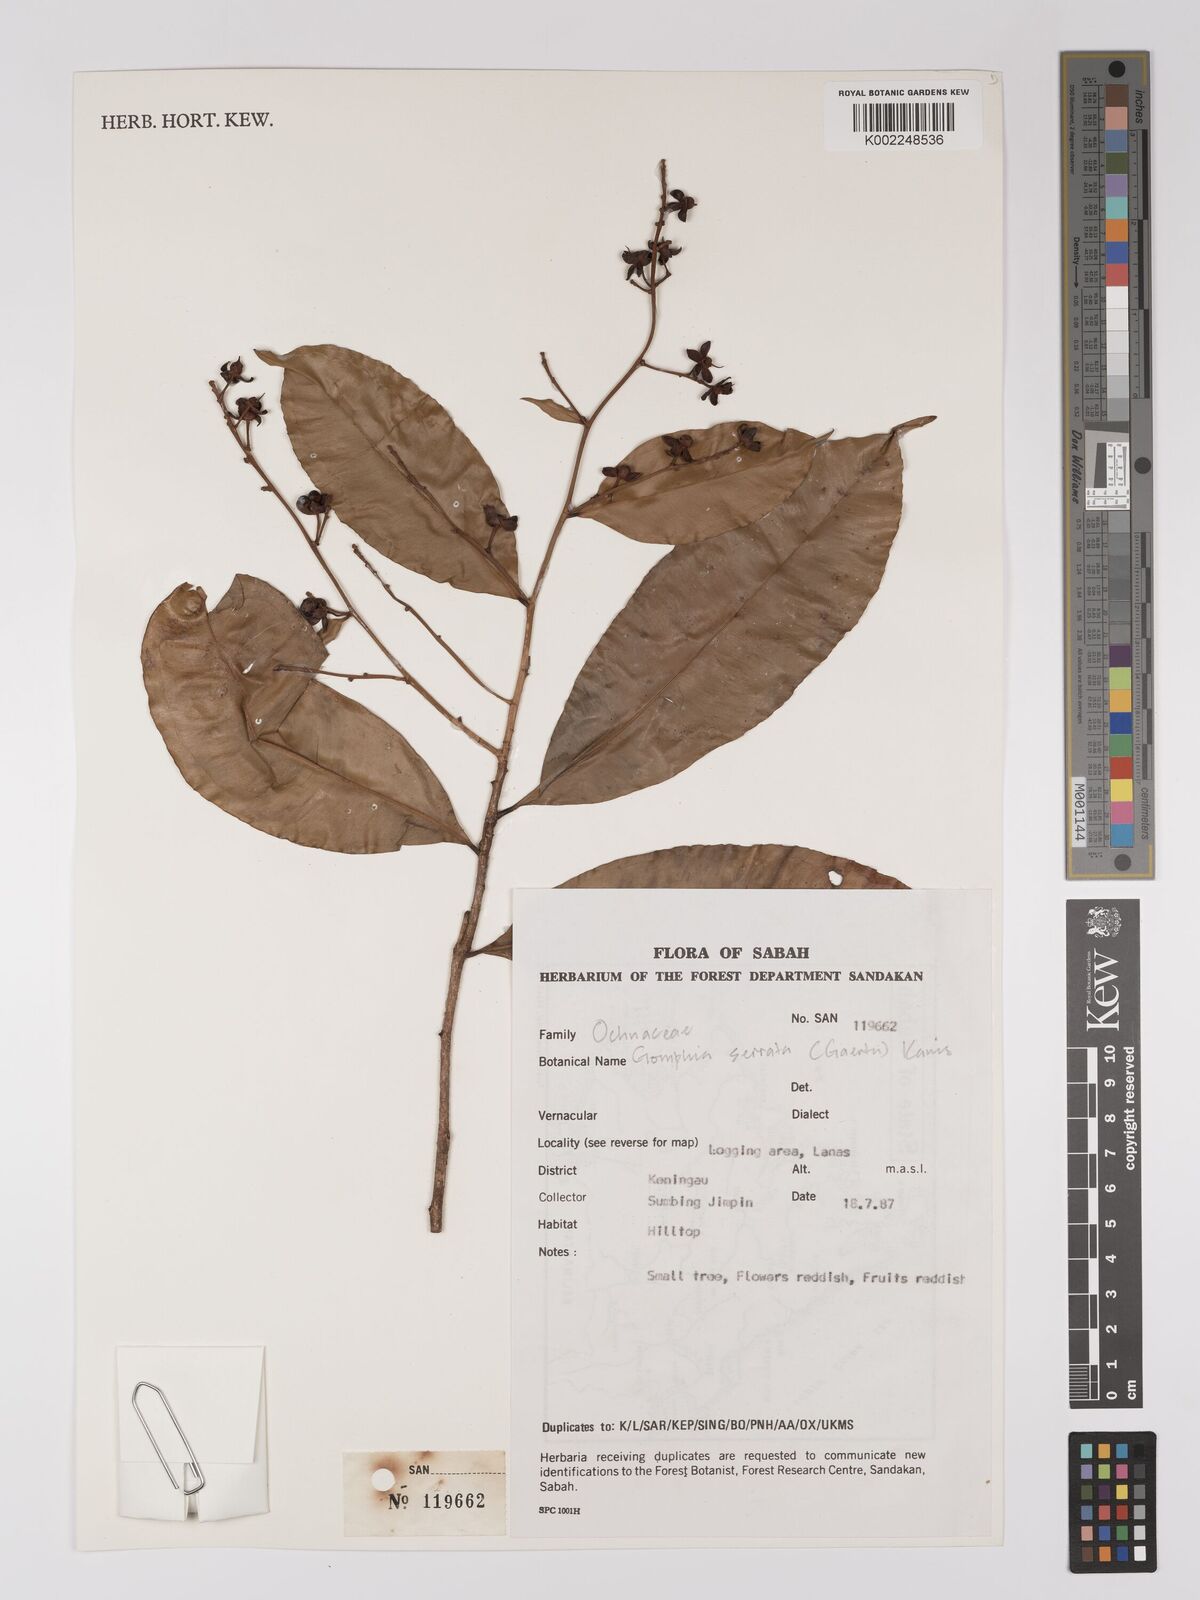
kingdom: Plantae
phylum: Tracheophyta
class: Magnoliopsida
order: Malpighiales
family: Ochnaceae
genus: Gomphia
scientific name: Gomphia serrata
